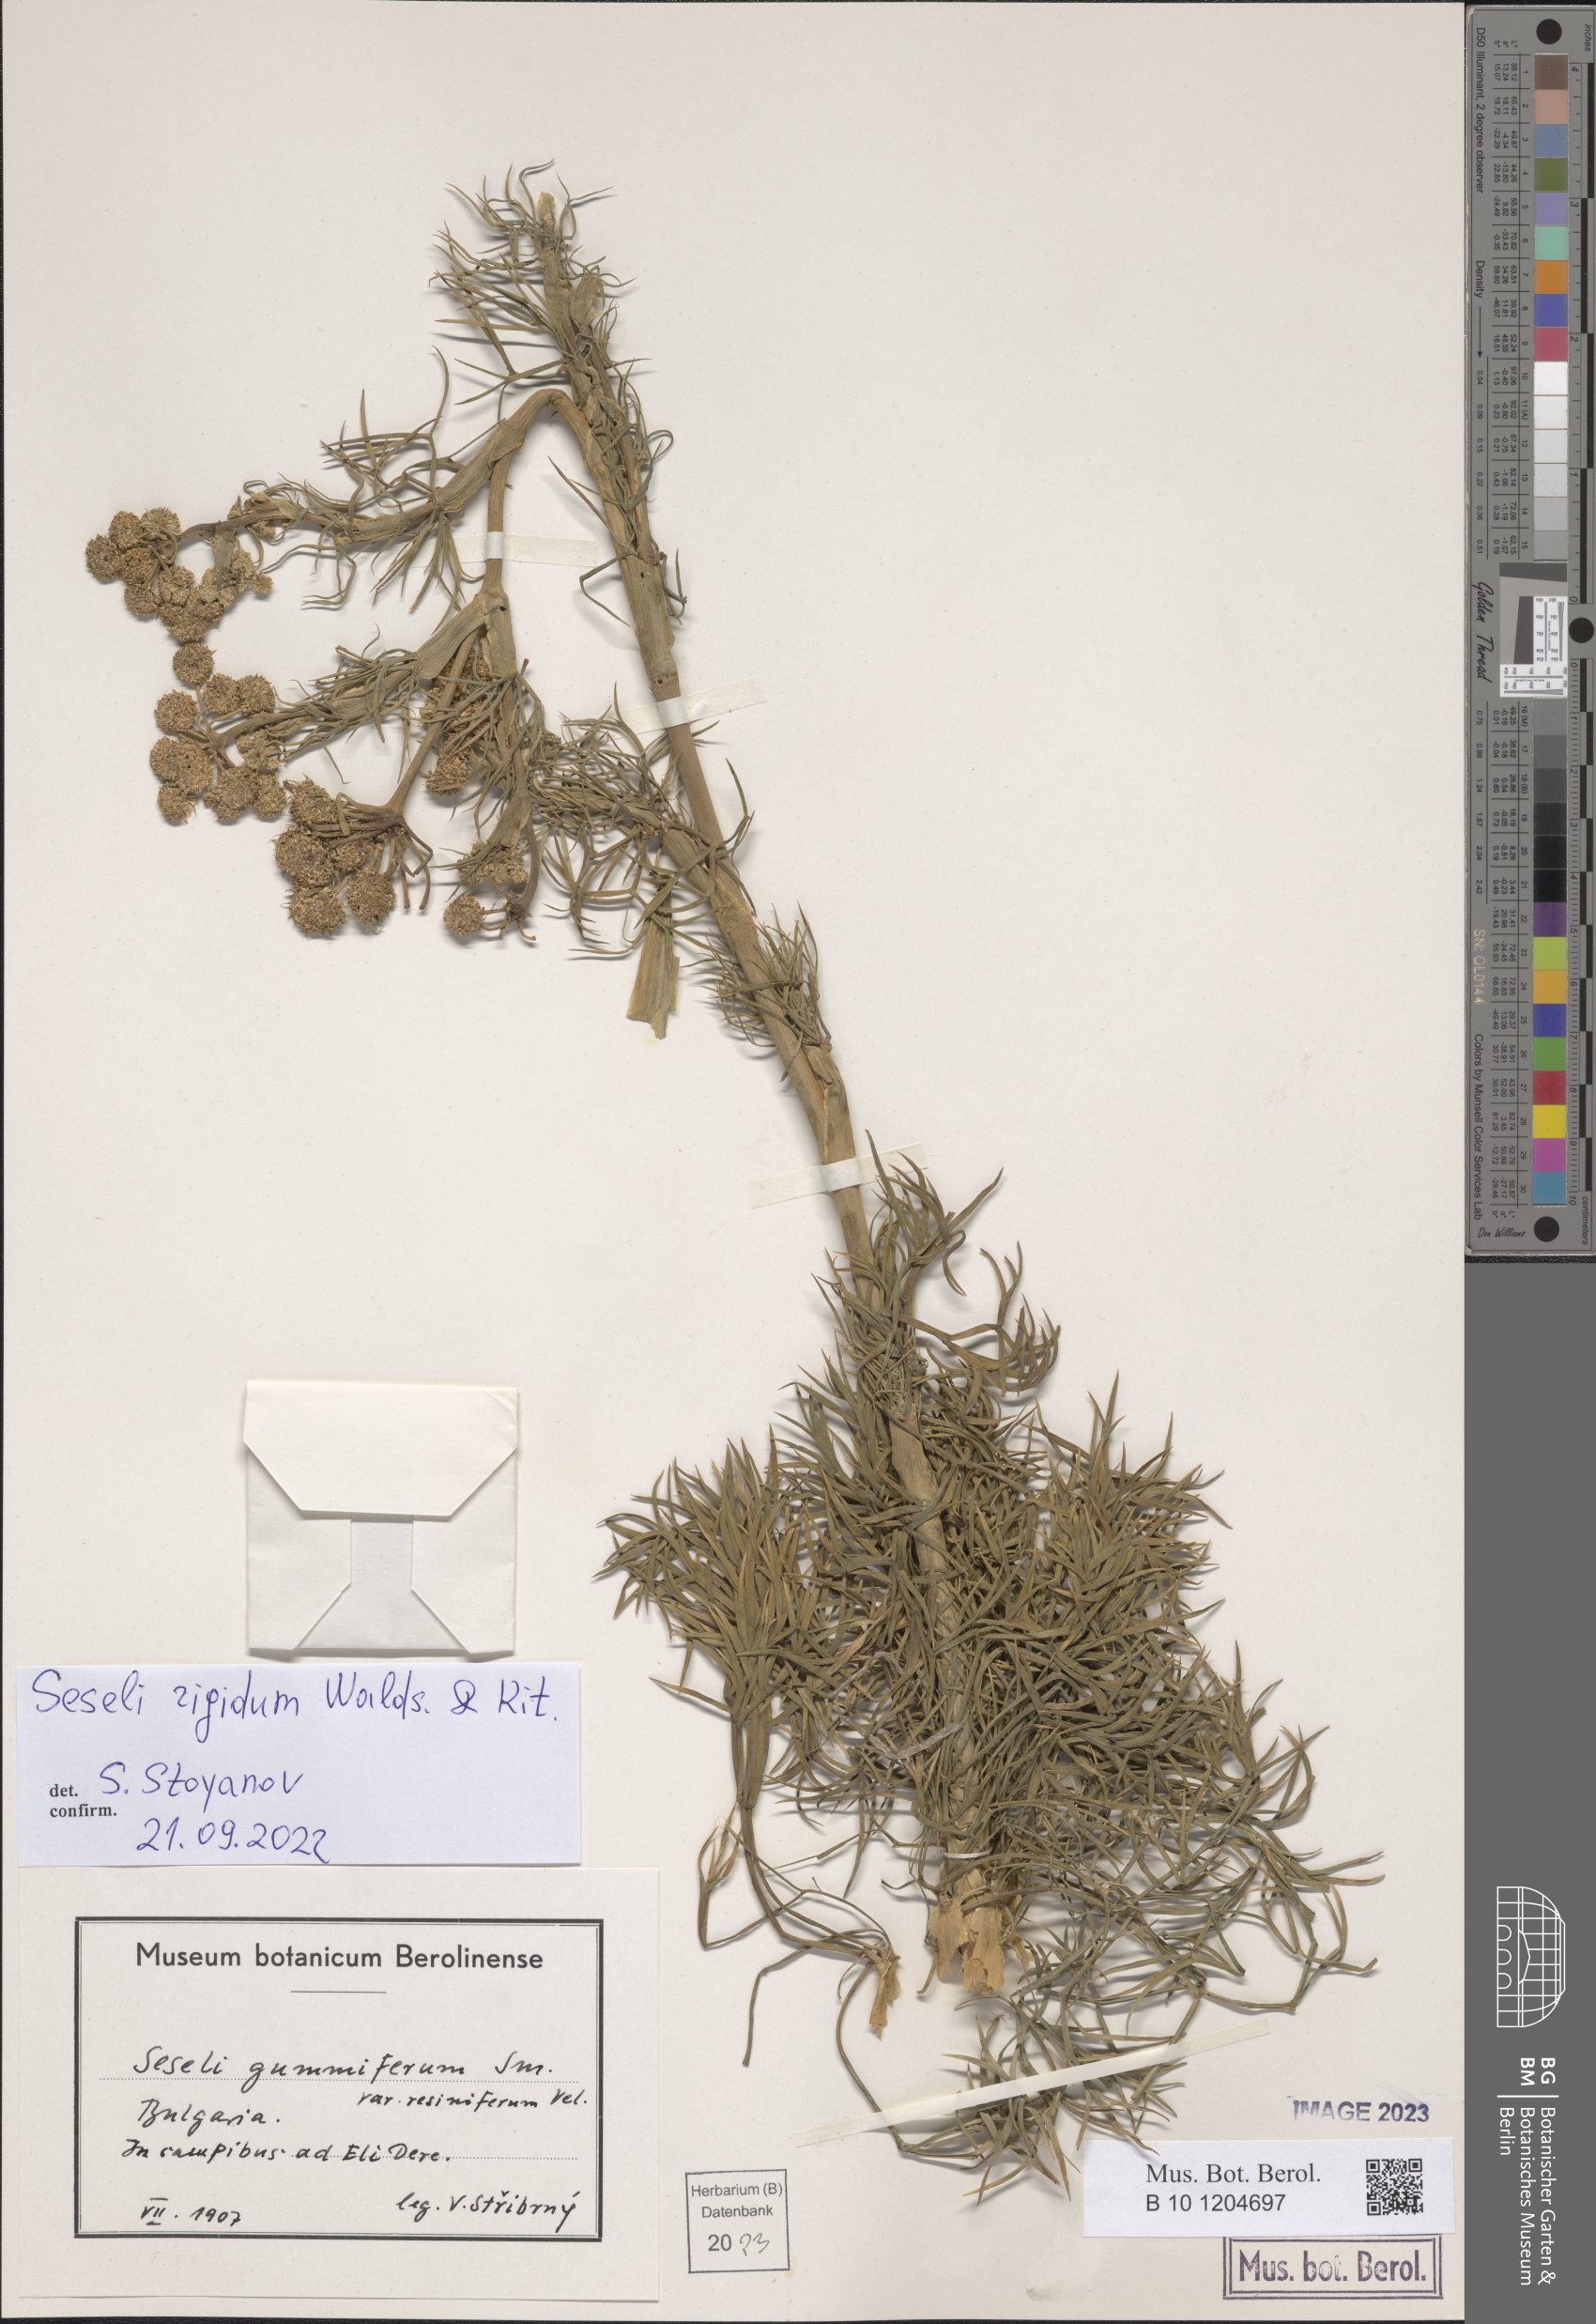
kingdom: Plantae
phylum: Tracheophyta
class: Magnoliopsida
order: Apiales
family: Apiaceae
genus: Seseli
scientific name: Seseli rigidum
